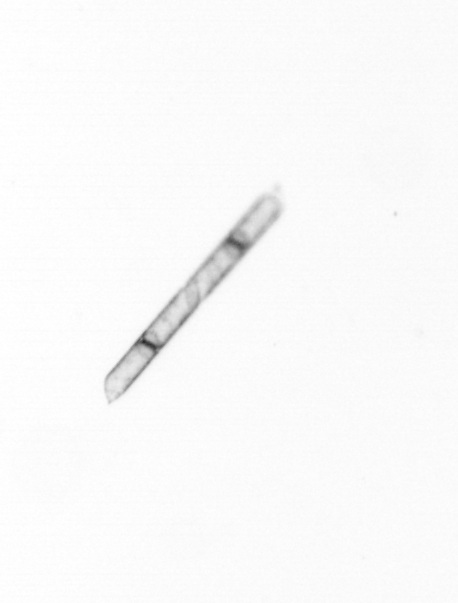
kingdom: Chromista
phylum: Ochrophyta
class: Bacillariophyceae
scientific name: Bacillariophyceae
